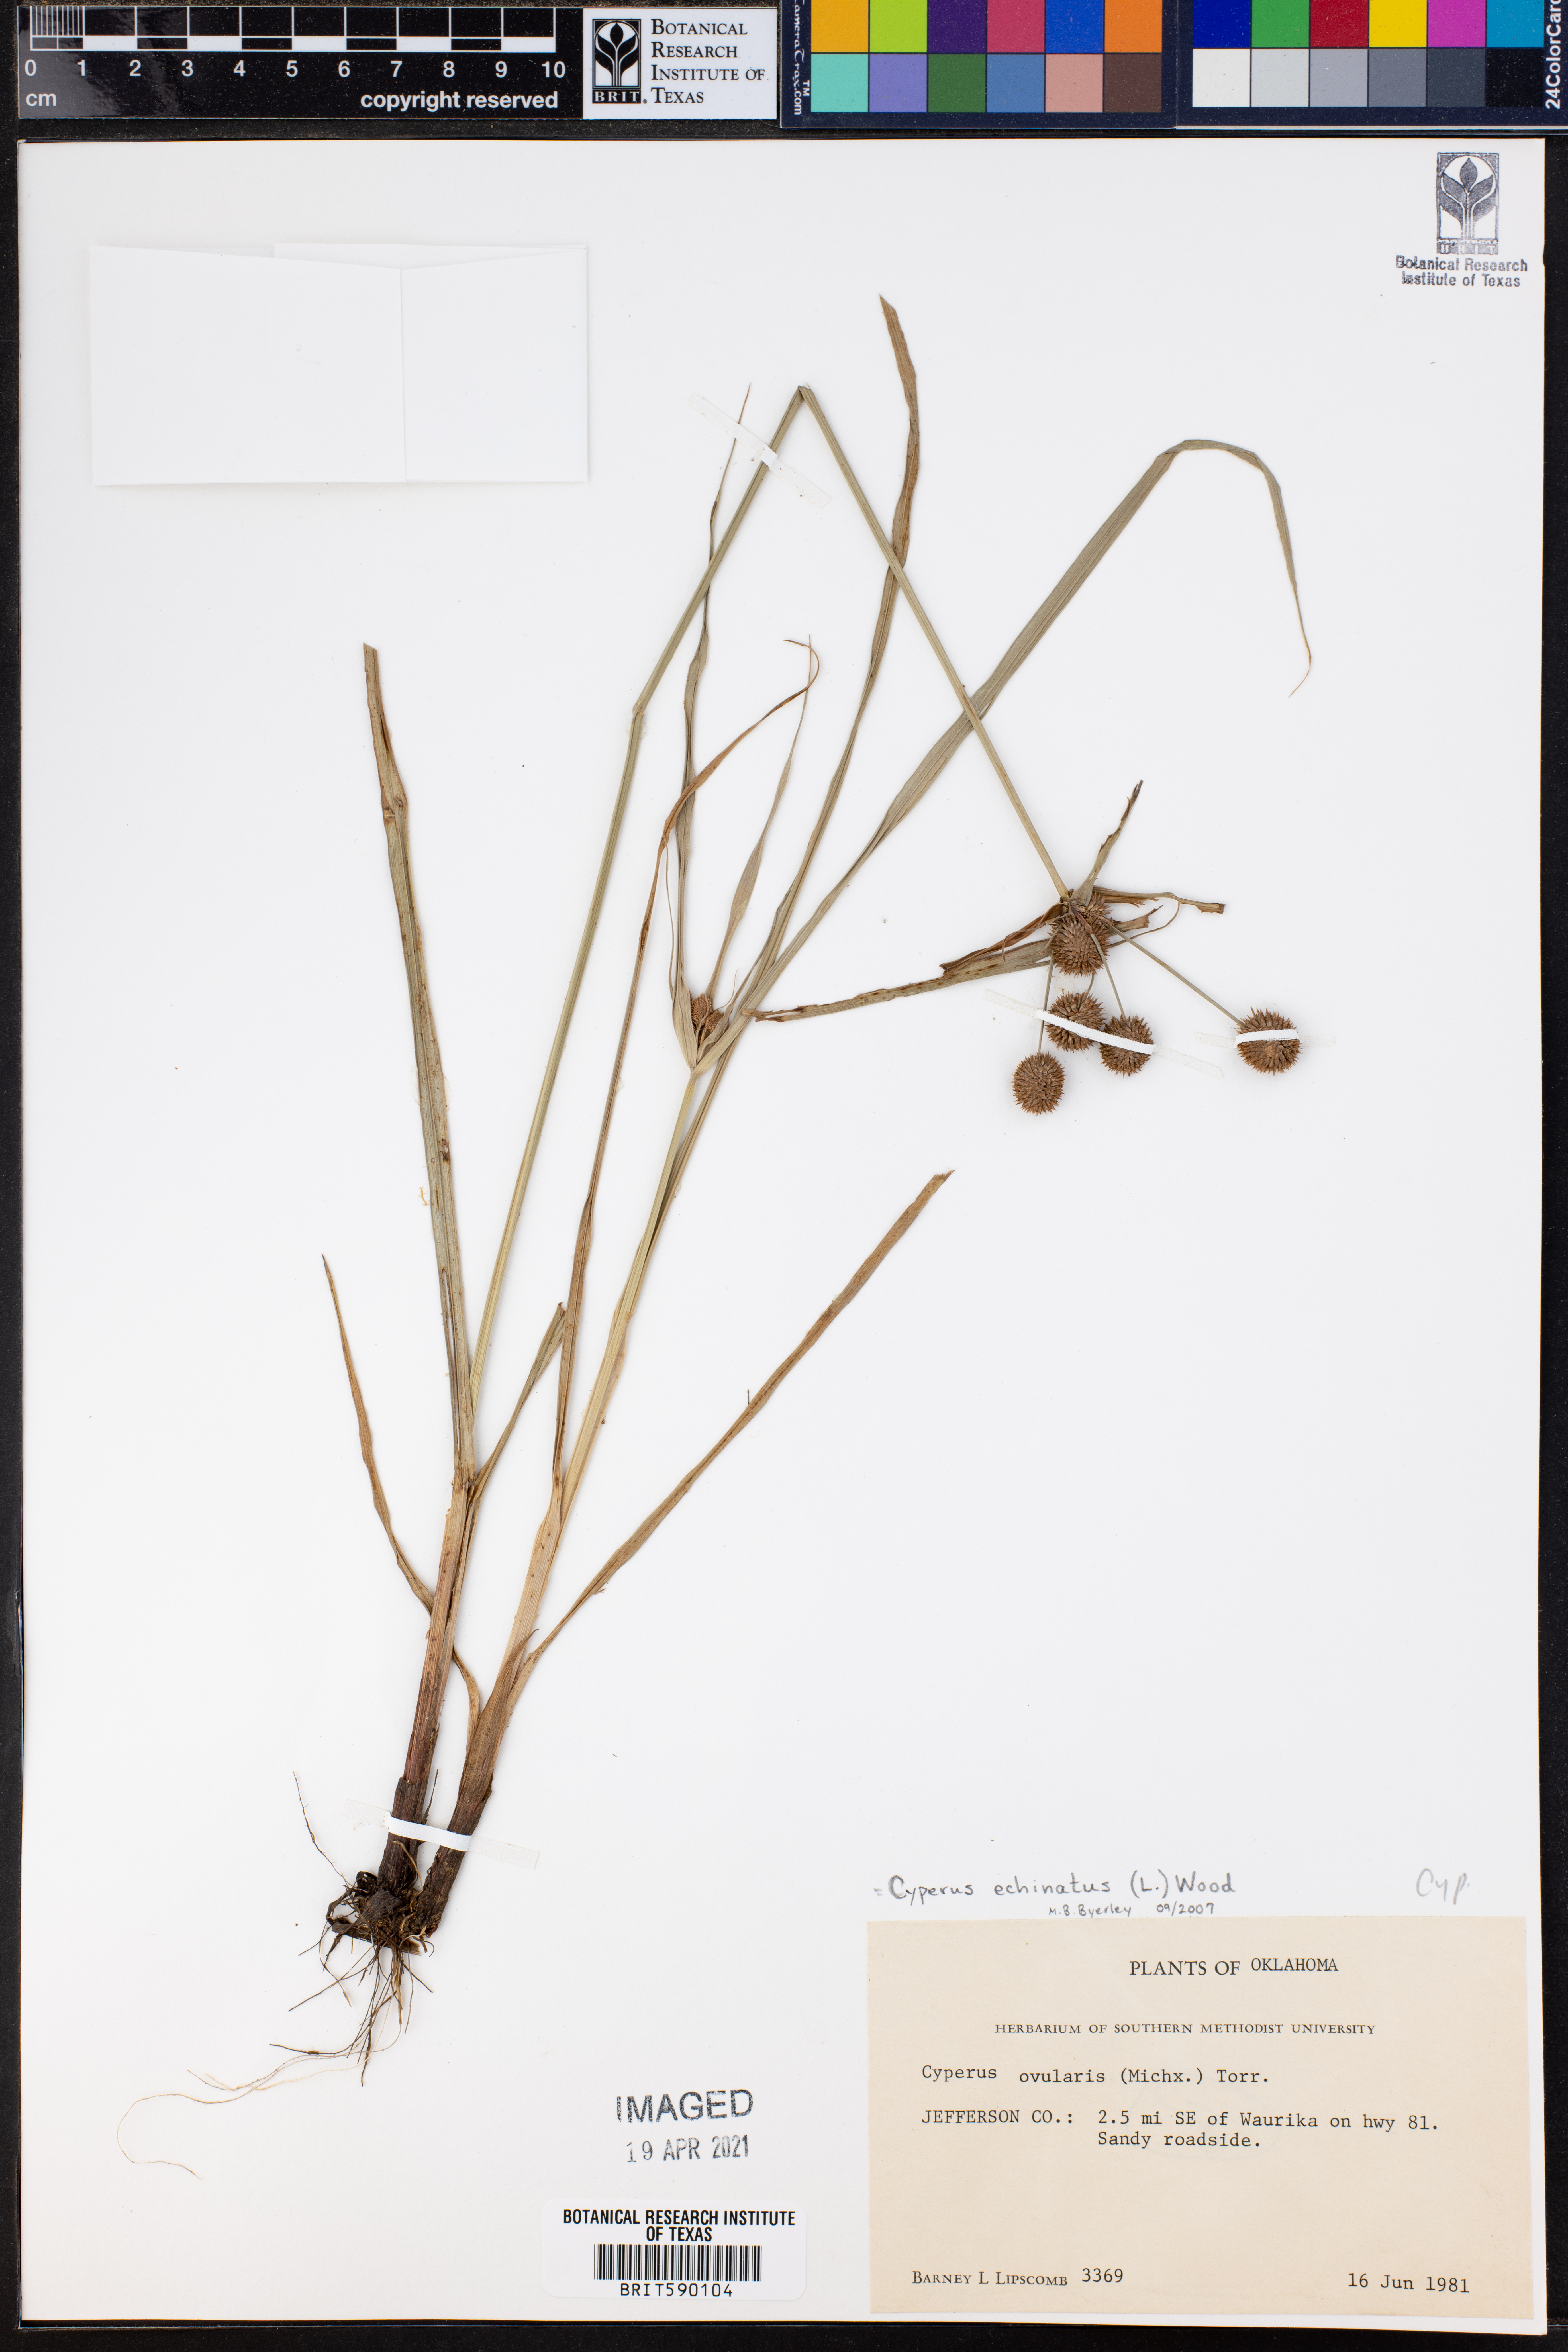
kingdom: Plantae
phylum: Tracheophyta
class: Liliopsida
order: Poales
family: Cyperaceae
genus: Cyperus
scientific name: Cyperus echinatus
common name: Teasel sedge
